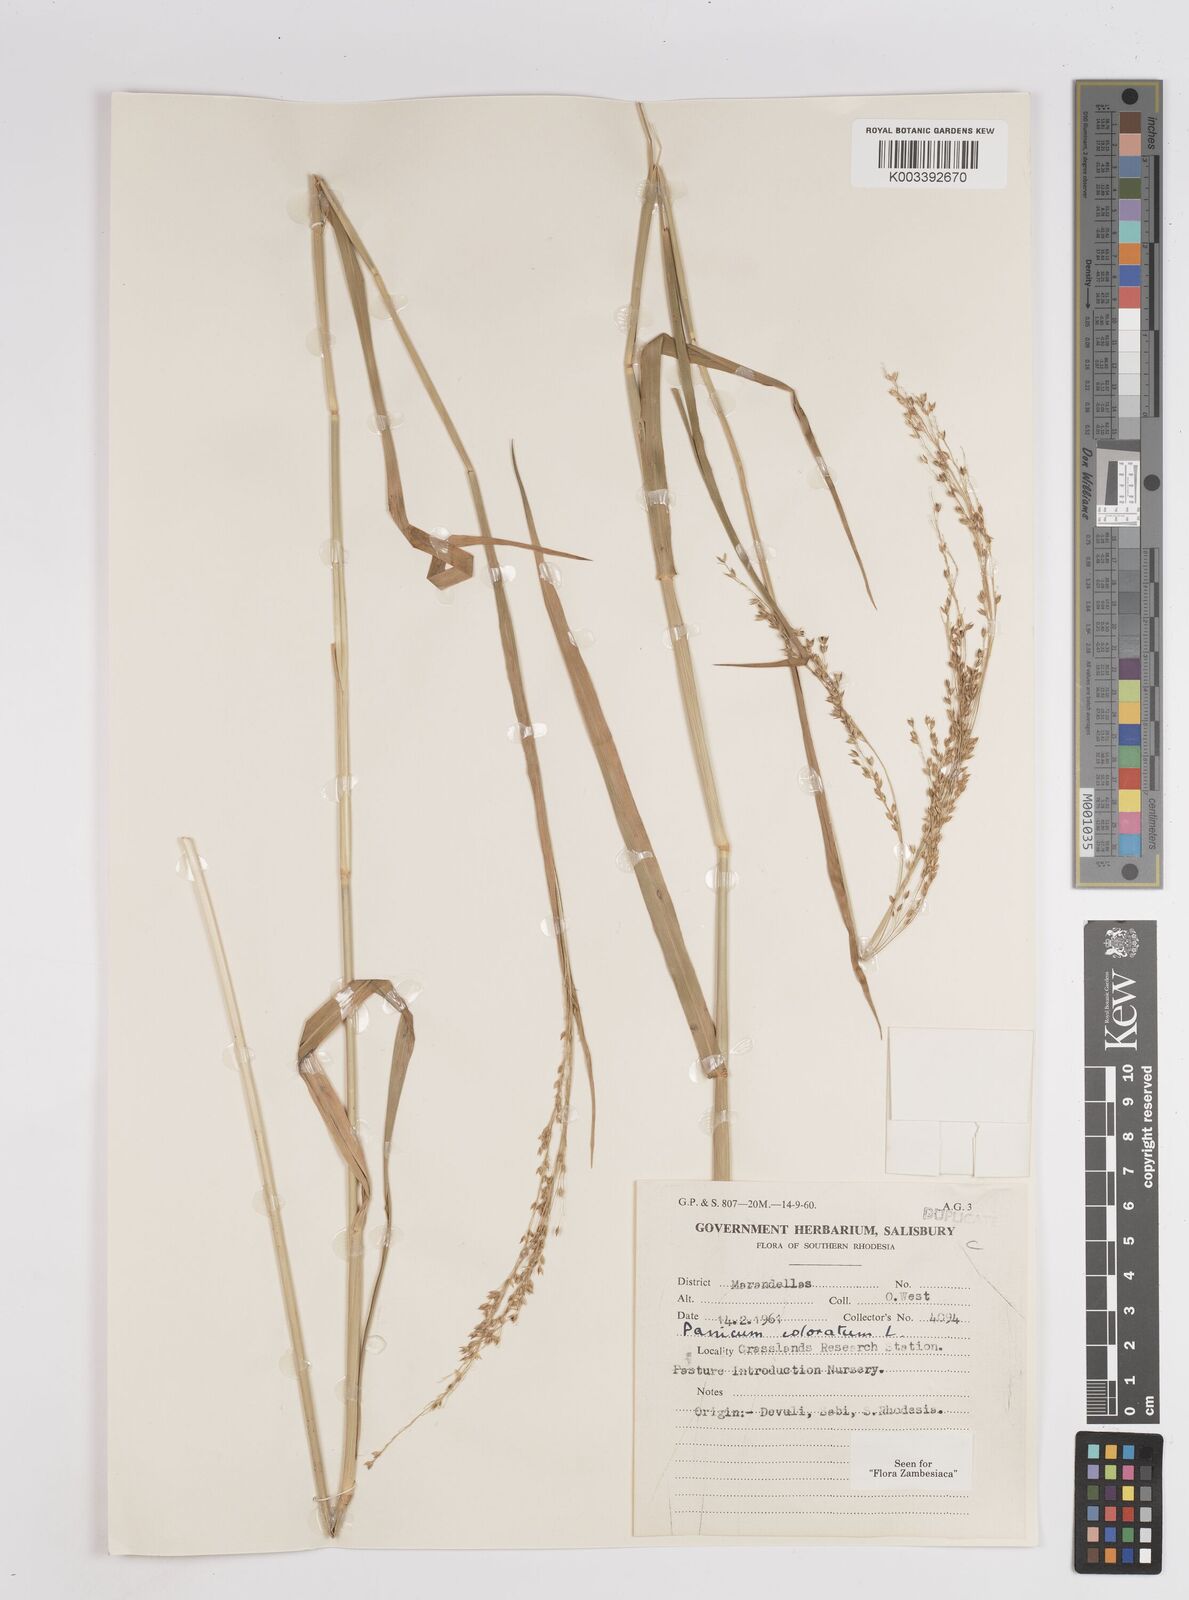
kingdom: Plantae
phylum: Tracheophyta
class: Liliopsida
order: Poales
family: Poaceae
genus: Panicum
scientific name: Panicum coloratum
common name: Kleingrass
